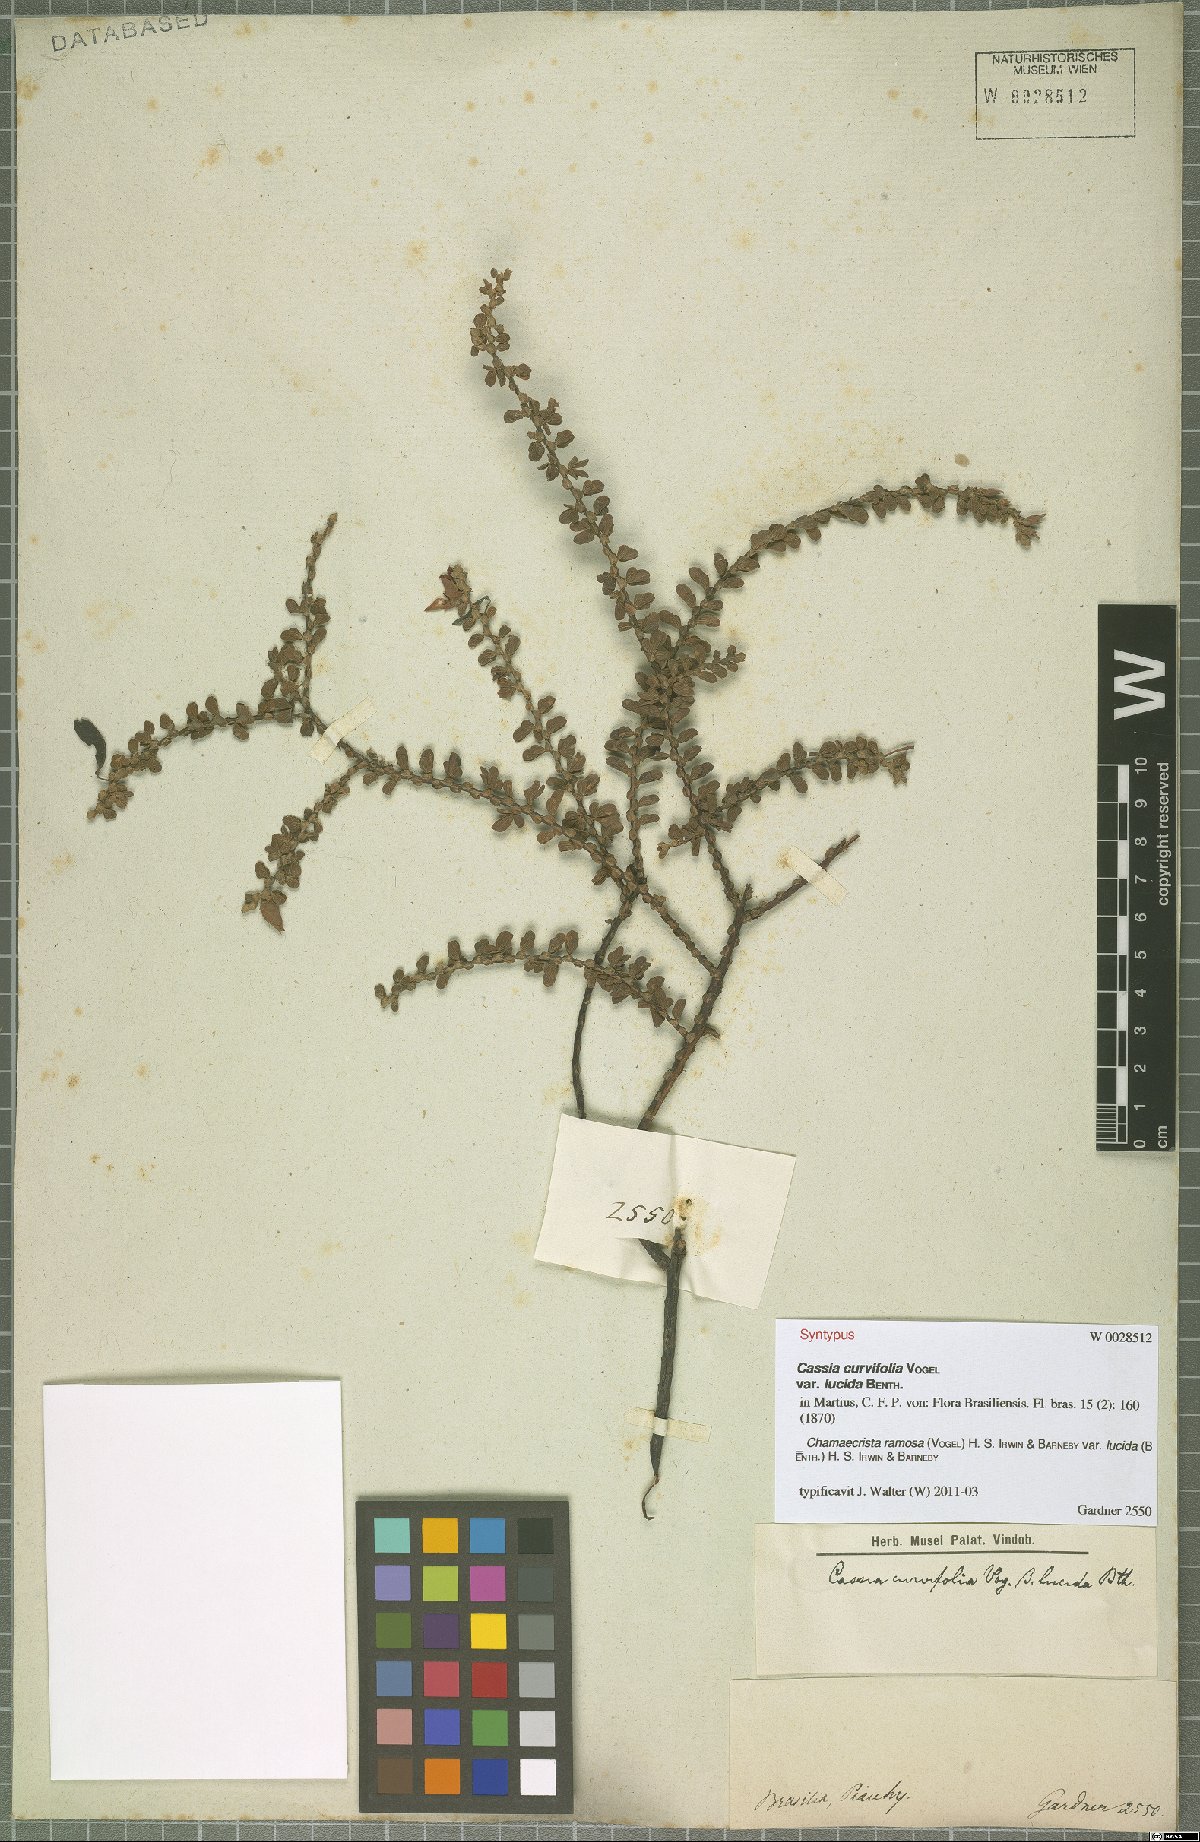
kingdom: Plantae
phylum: Tracheophyta
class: Magnoliopsida
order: Fabales
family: Fabaceae
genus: Chamaecrista
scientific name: Chamaecrista ramosa
